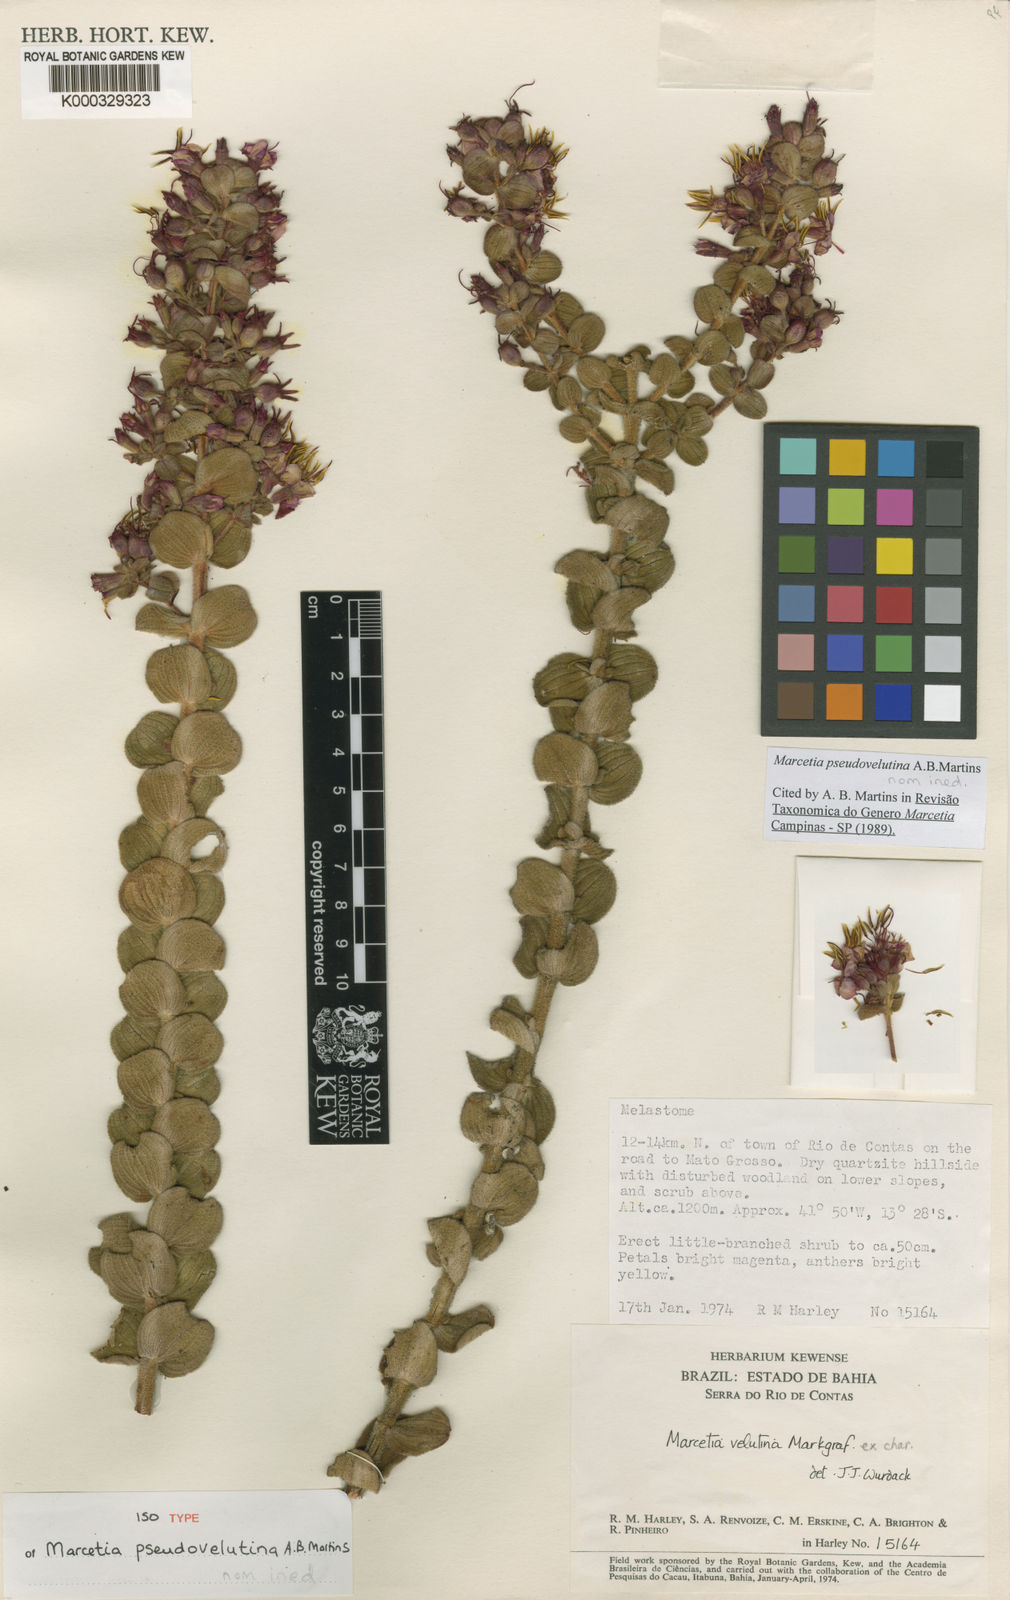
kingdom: Plantae
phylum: Tracheophyta
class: Magnoliopsida
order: Myrtales
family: Melastomataceae
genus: Marcetia
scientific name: Marcetia
